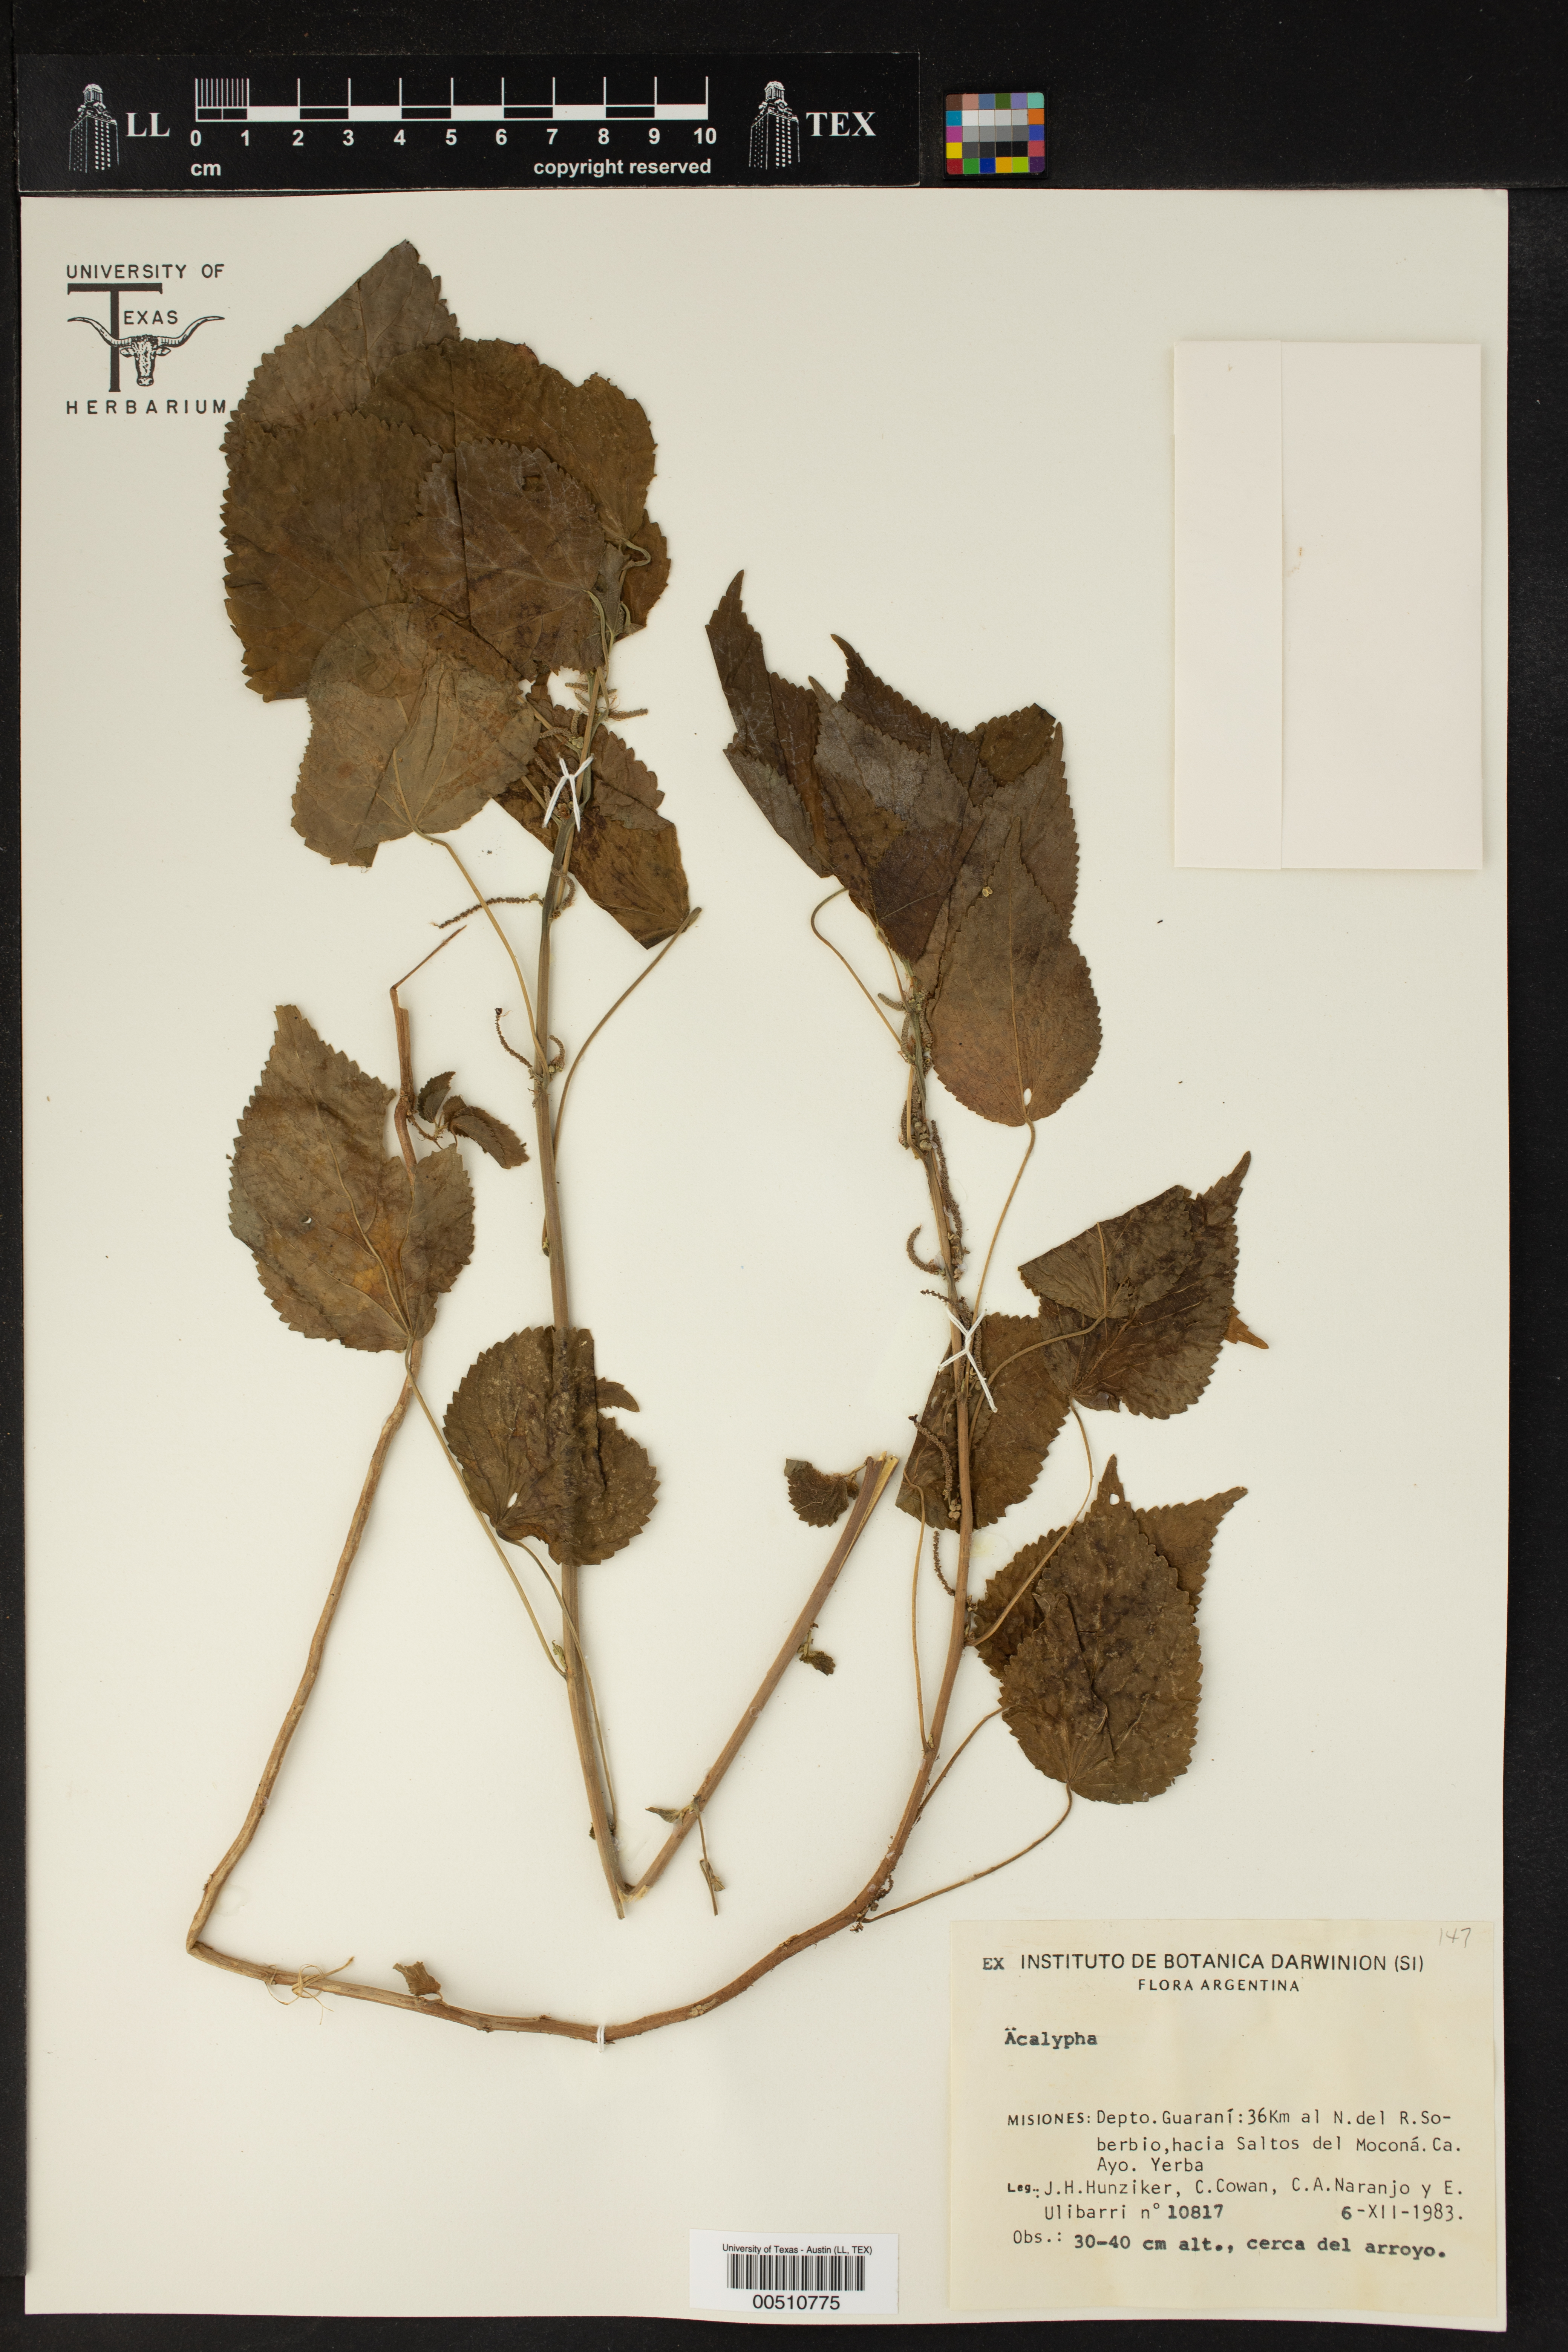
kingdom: Plantae
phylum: Tracheophyta
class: Magnoliopsida
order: Malpighiales
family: Euphorbiaceae
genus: Acalypha
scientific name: Acalypha
